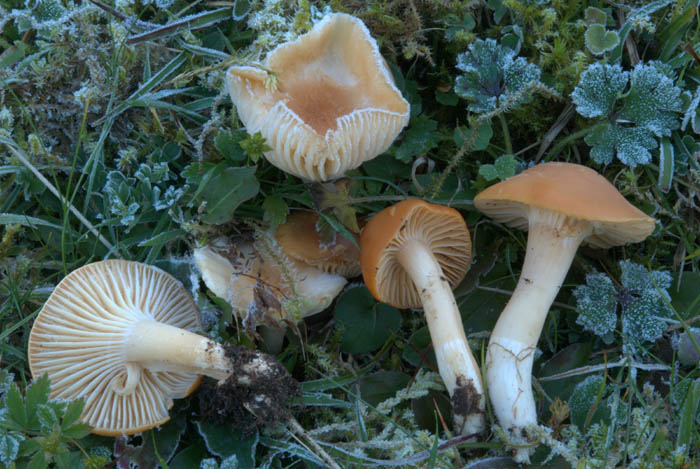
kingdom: Fungi
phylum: Basidiomycota
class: Agaricomycetes
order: Agaricales
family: Hygrophoraceae
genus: Cuphophyllus
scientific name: Cuphophyllus pratensis
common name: eng-vokshat
